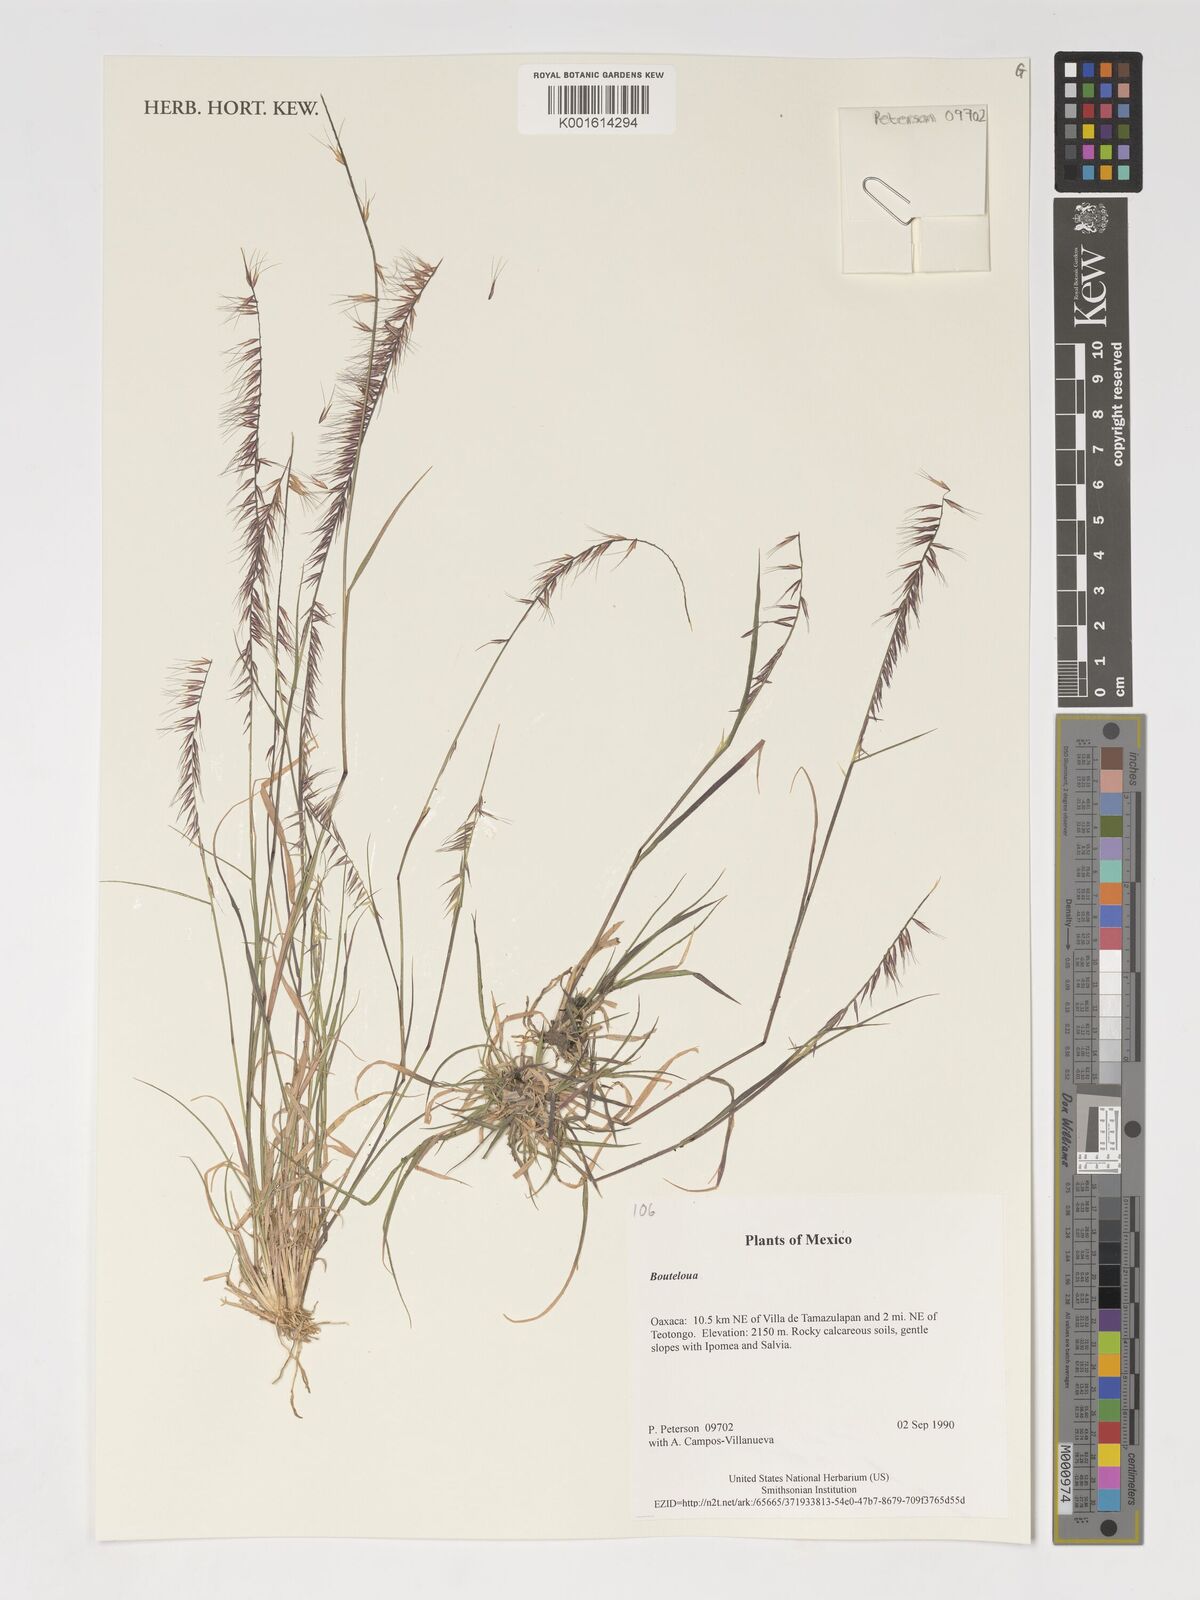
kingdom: Plantae
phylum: Tracheophyta
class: Liliopsida
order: Poales
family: Poaceae
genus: Bouteloua
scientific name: Bouteloua
